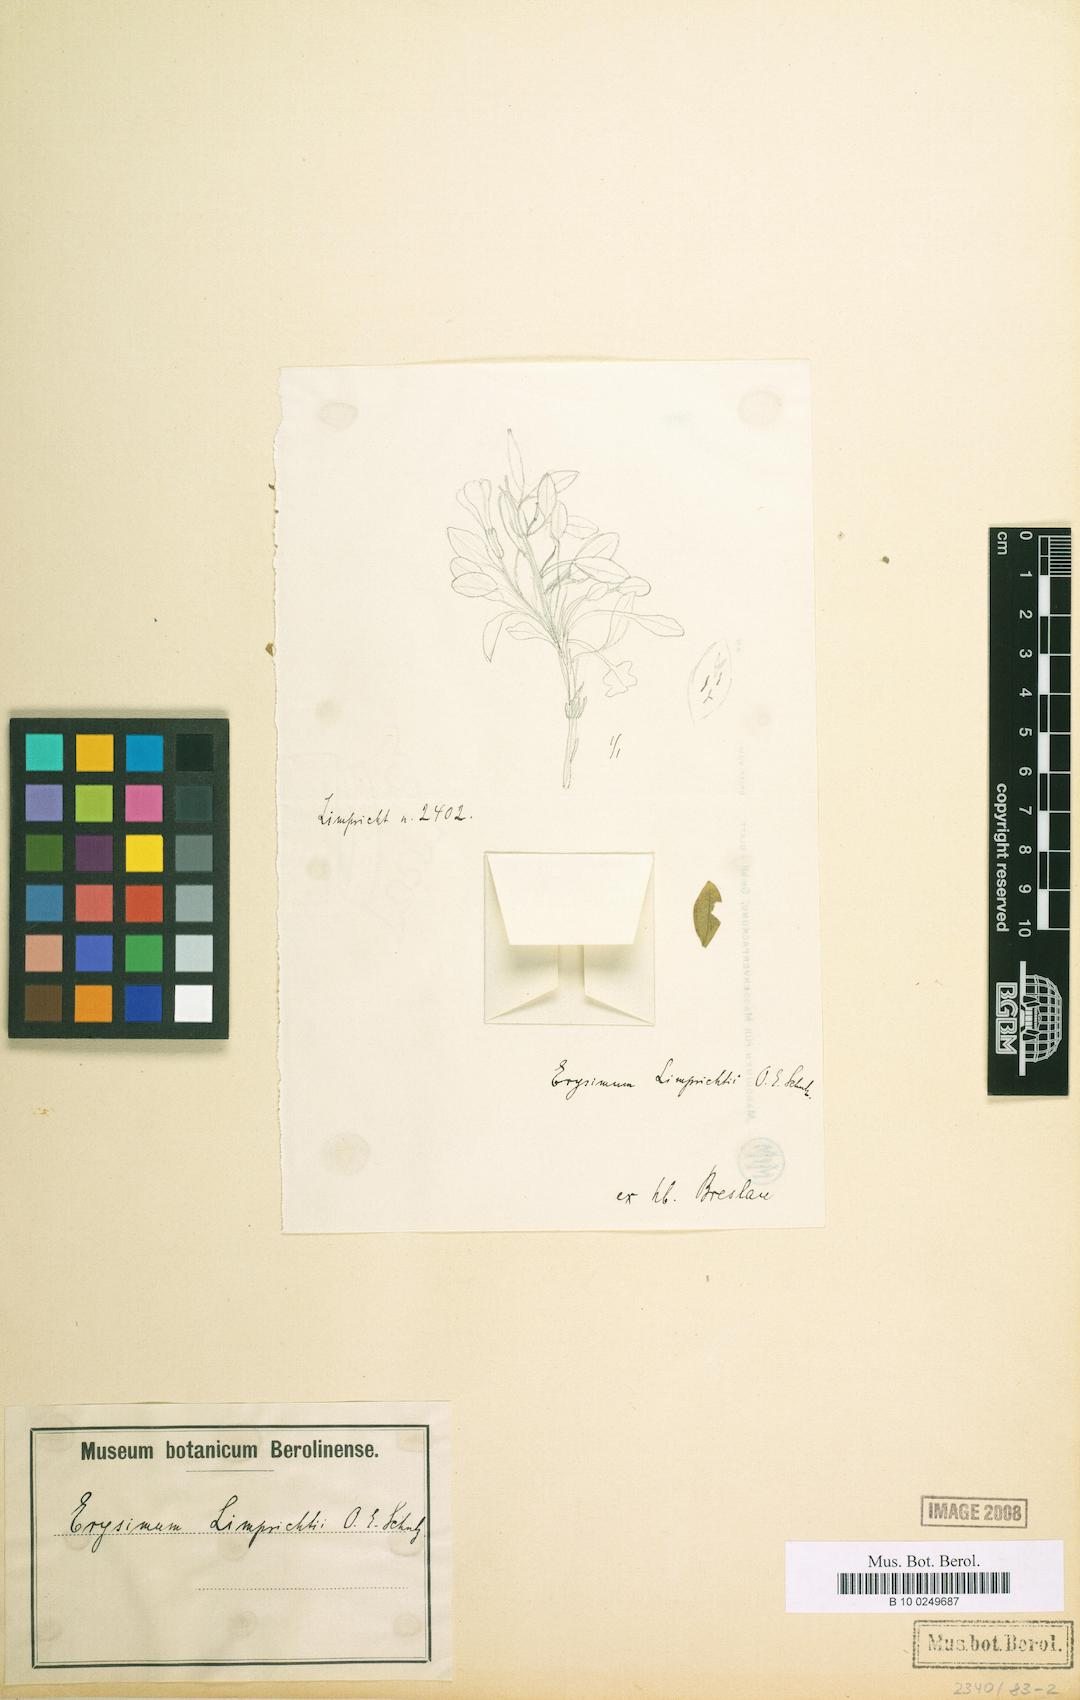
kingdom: Plantae
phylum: Tracheophyta
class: Magnoliopsida
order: Brassicales
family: Brassicaceae
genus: Erysimum
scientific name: Erysimum roseum
